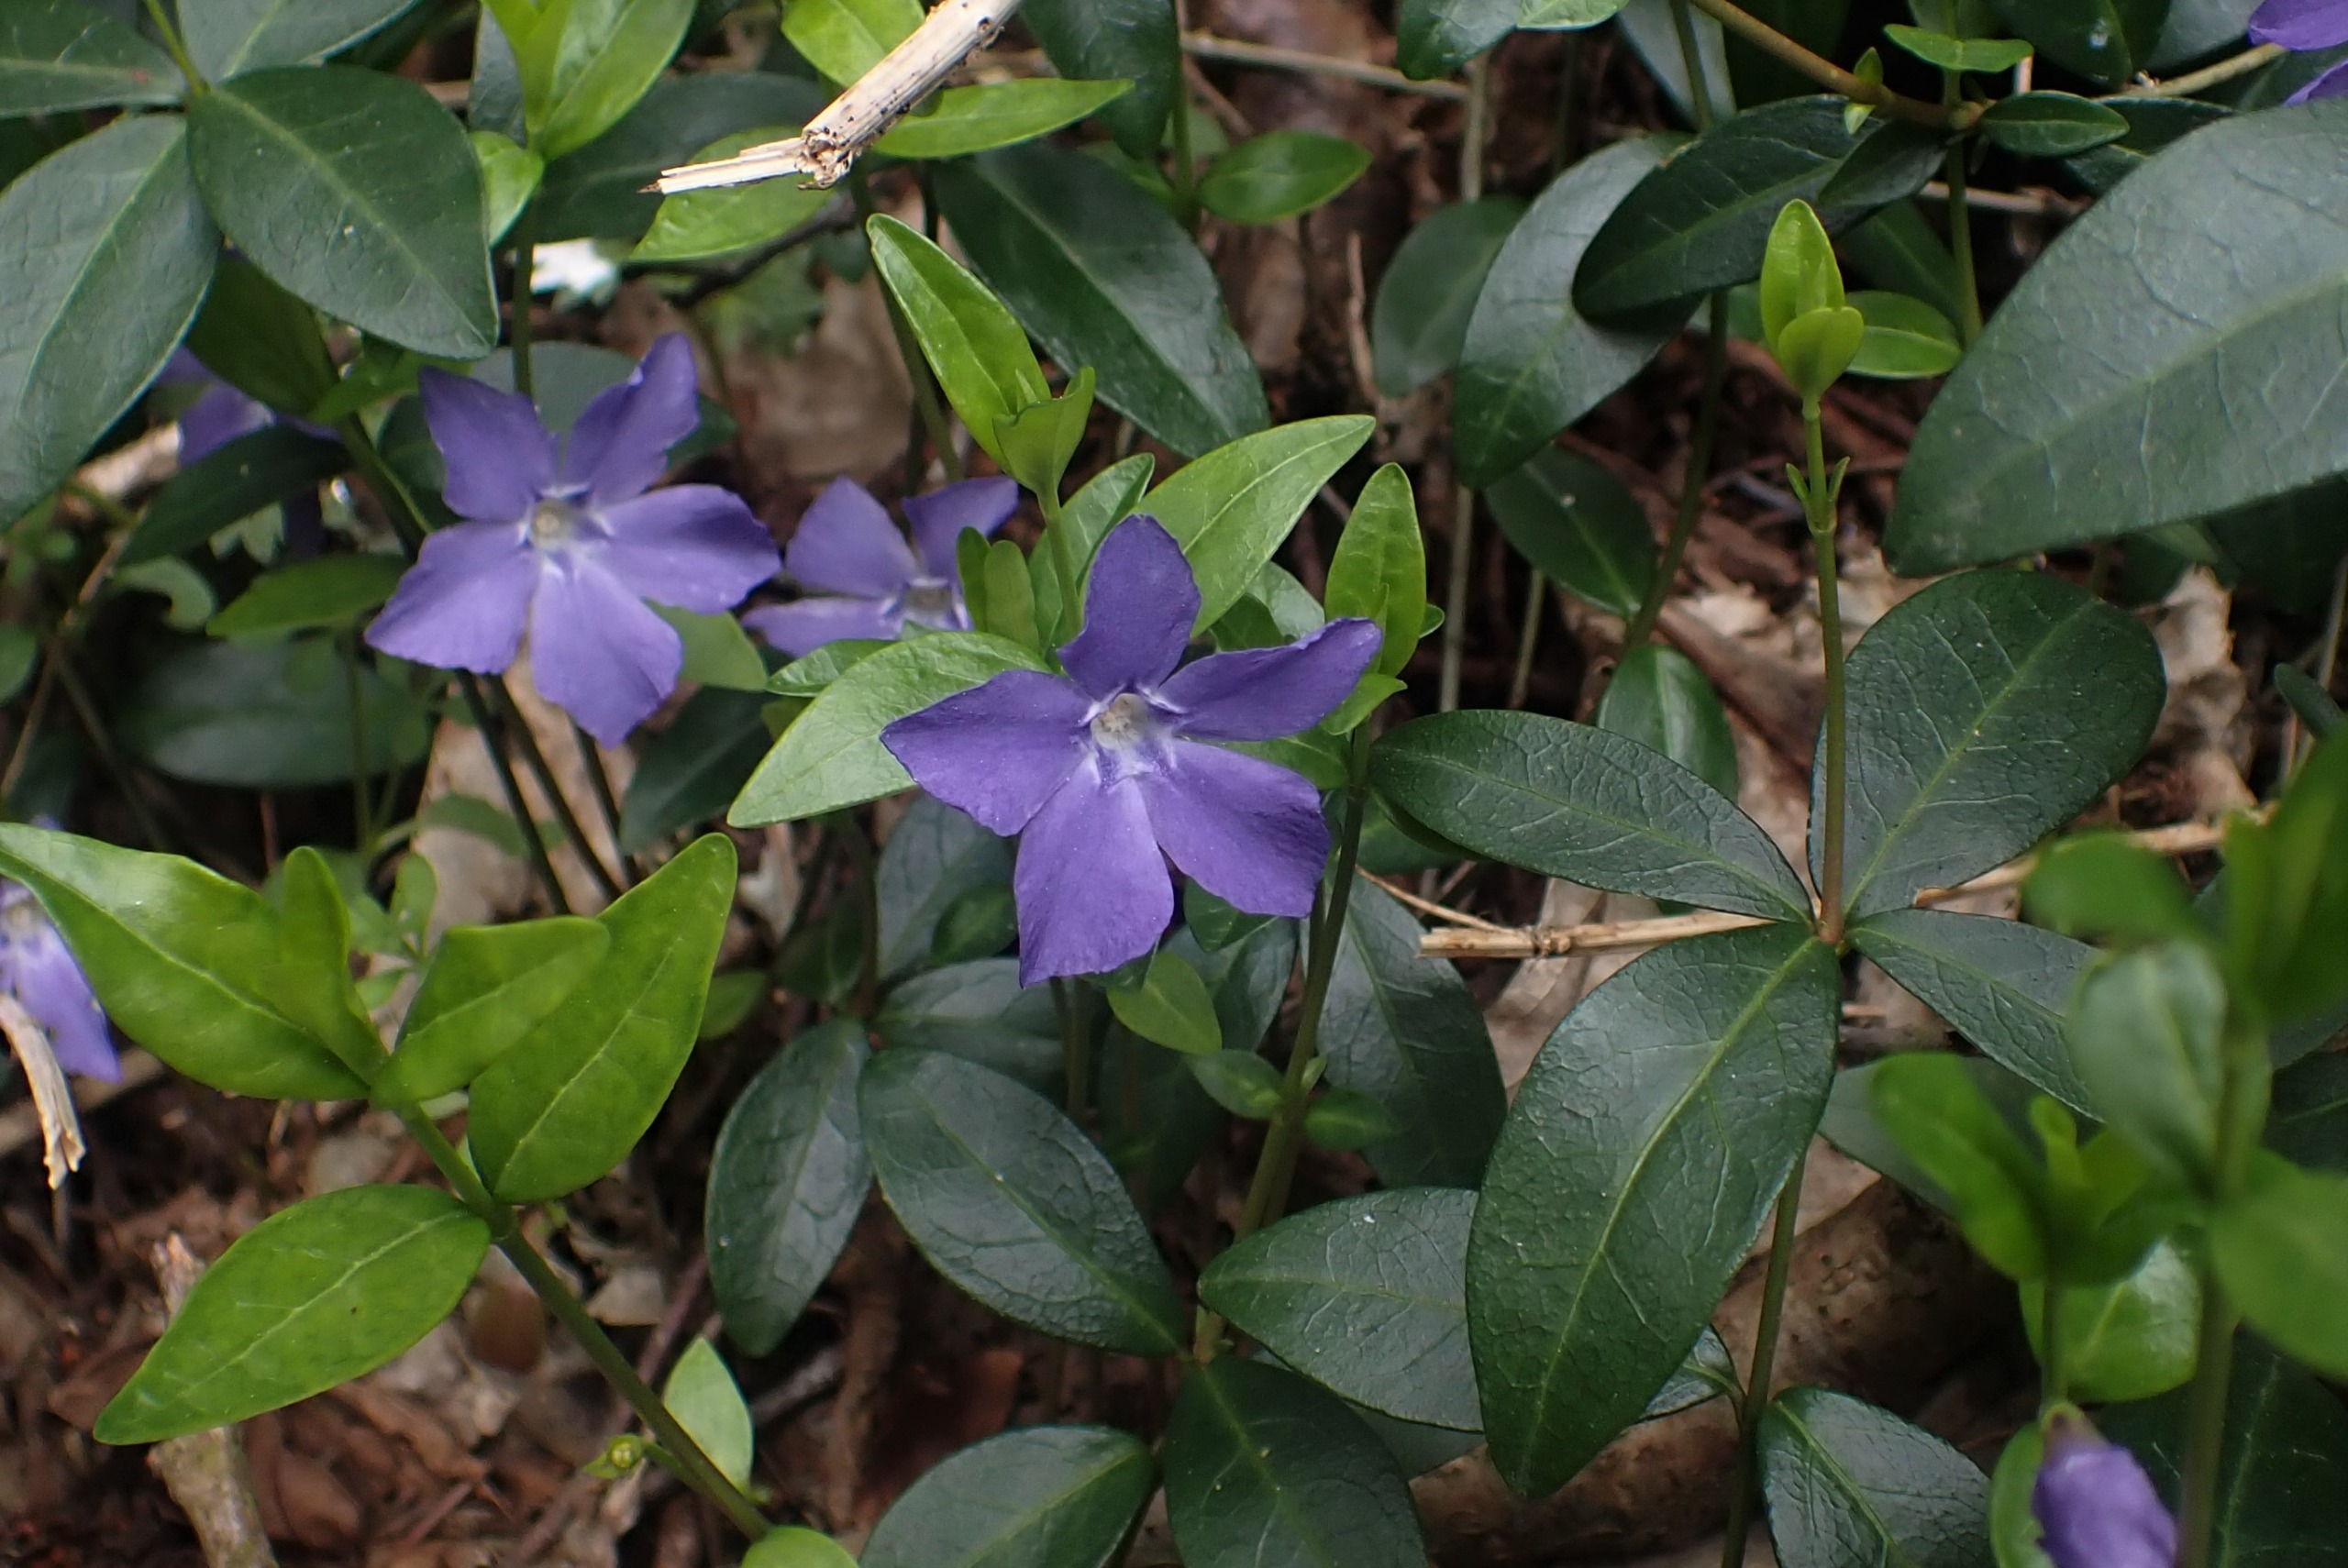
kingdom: Plantae
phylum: Tracheophyta
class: Magnoliopsida
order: Gentianales
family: Apocynaceae
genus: Vinca
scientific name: Vinca minor
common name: Liden singrøn
